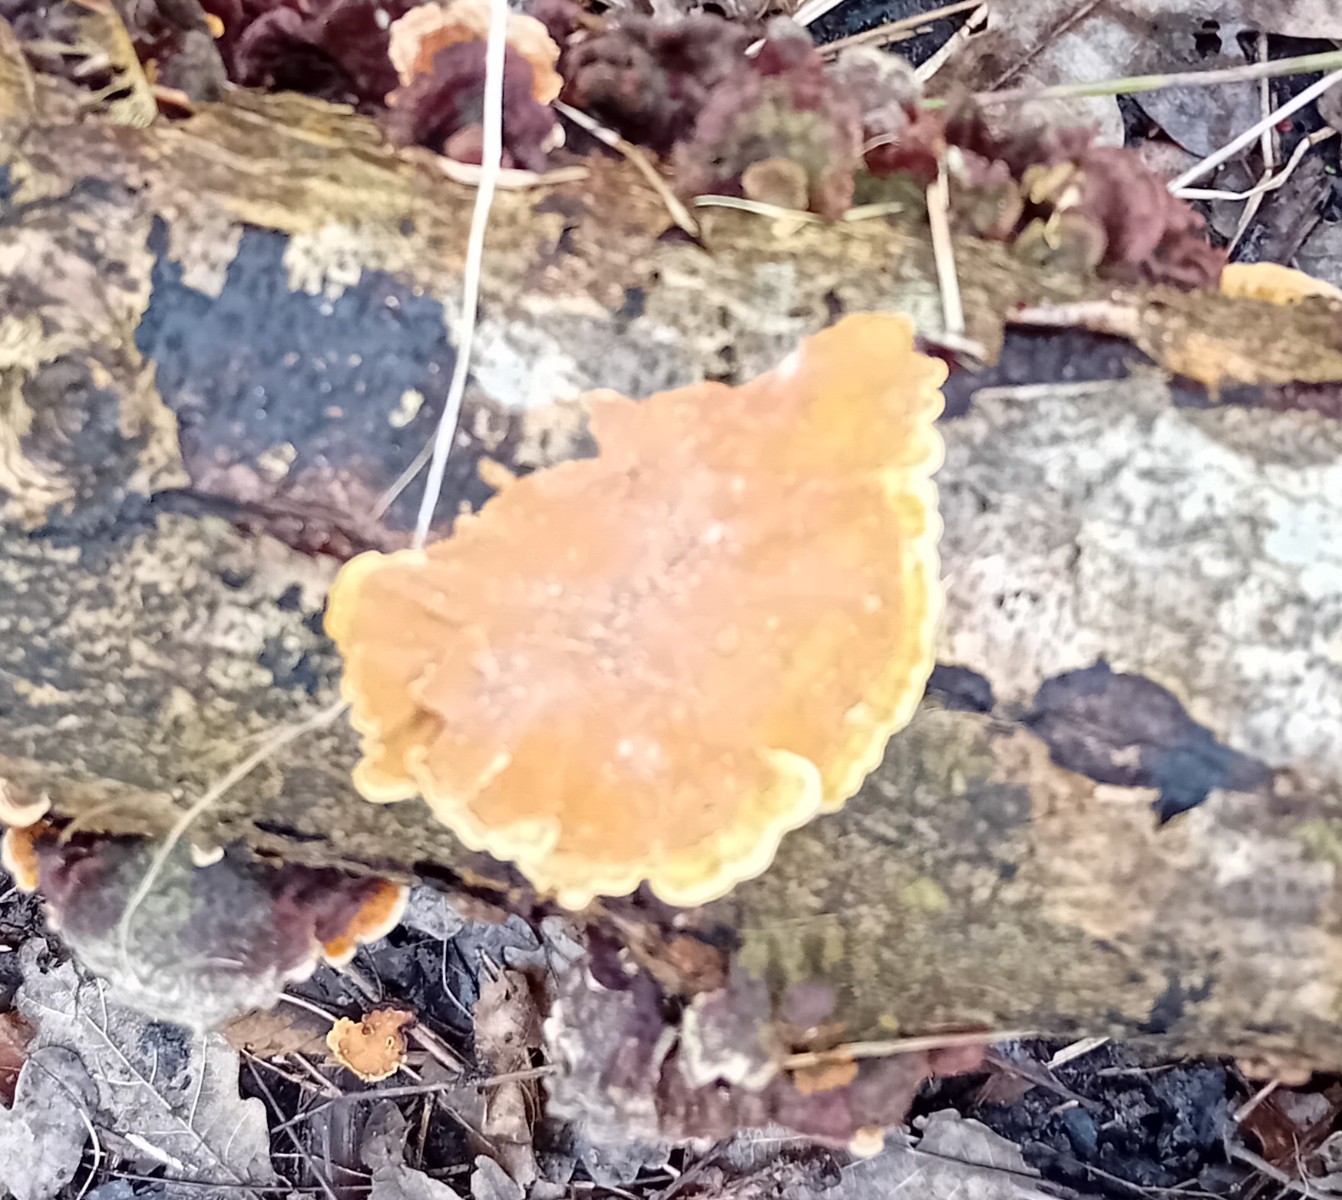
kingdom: Fungi
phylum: Basidiomycota
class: Agaricomycetes
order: Russulales
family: Stereaceae
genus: Stereum
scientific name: Stereum subtomentosum
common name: smuk lædersvamp
